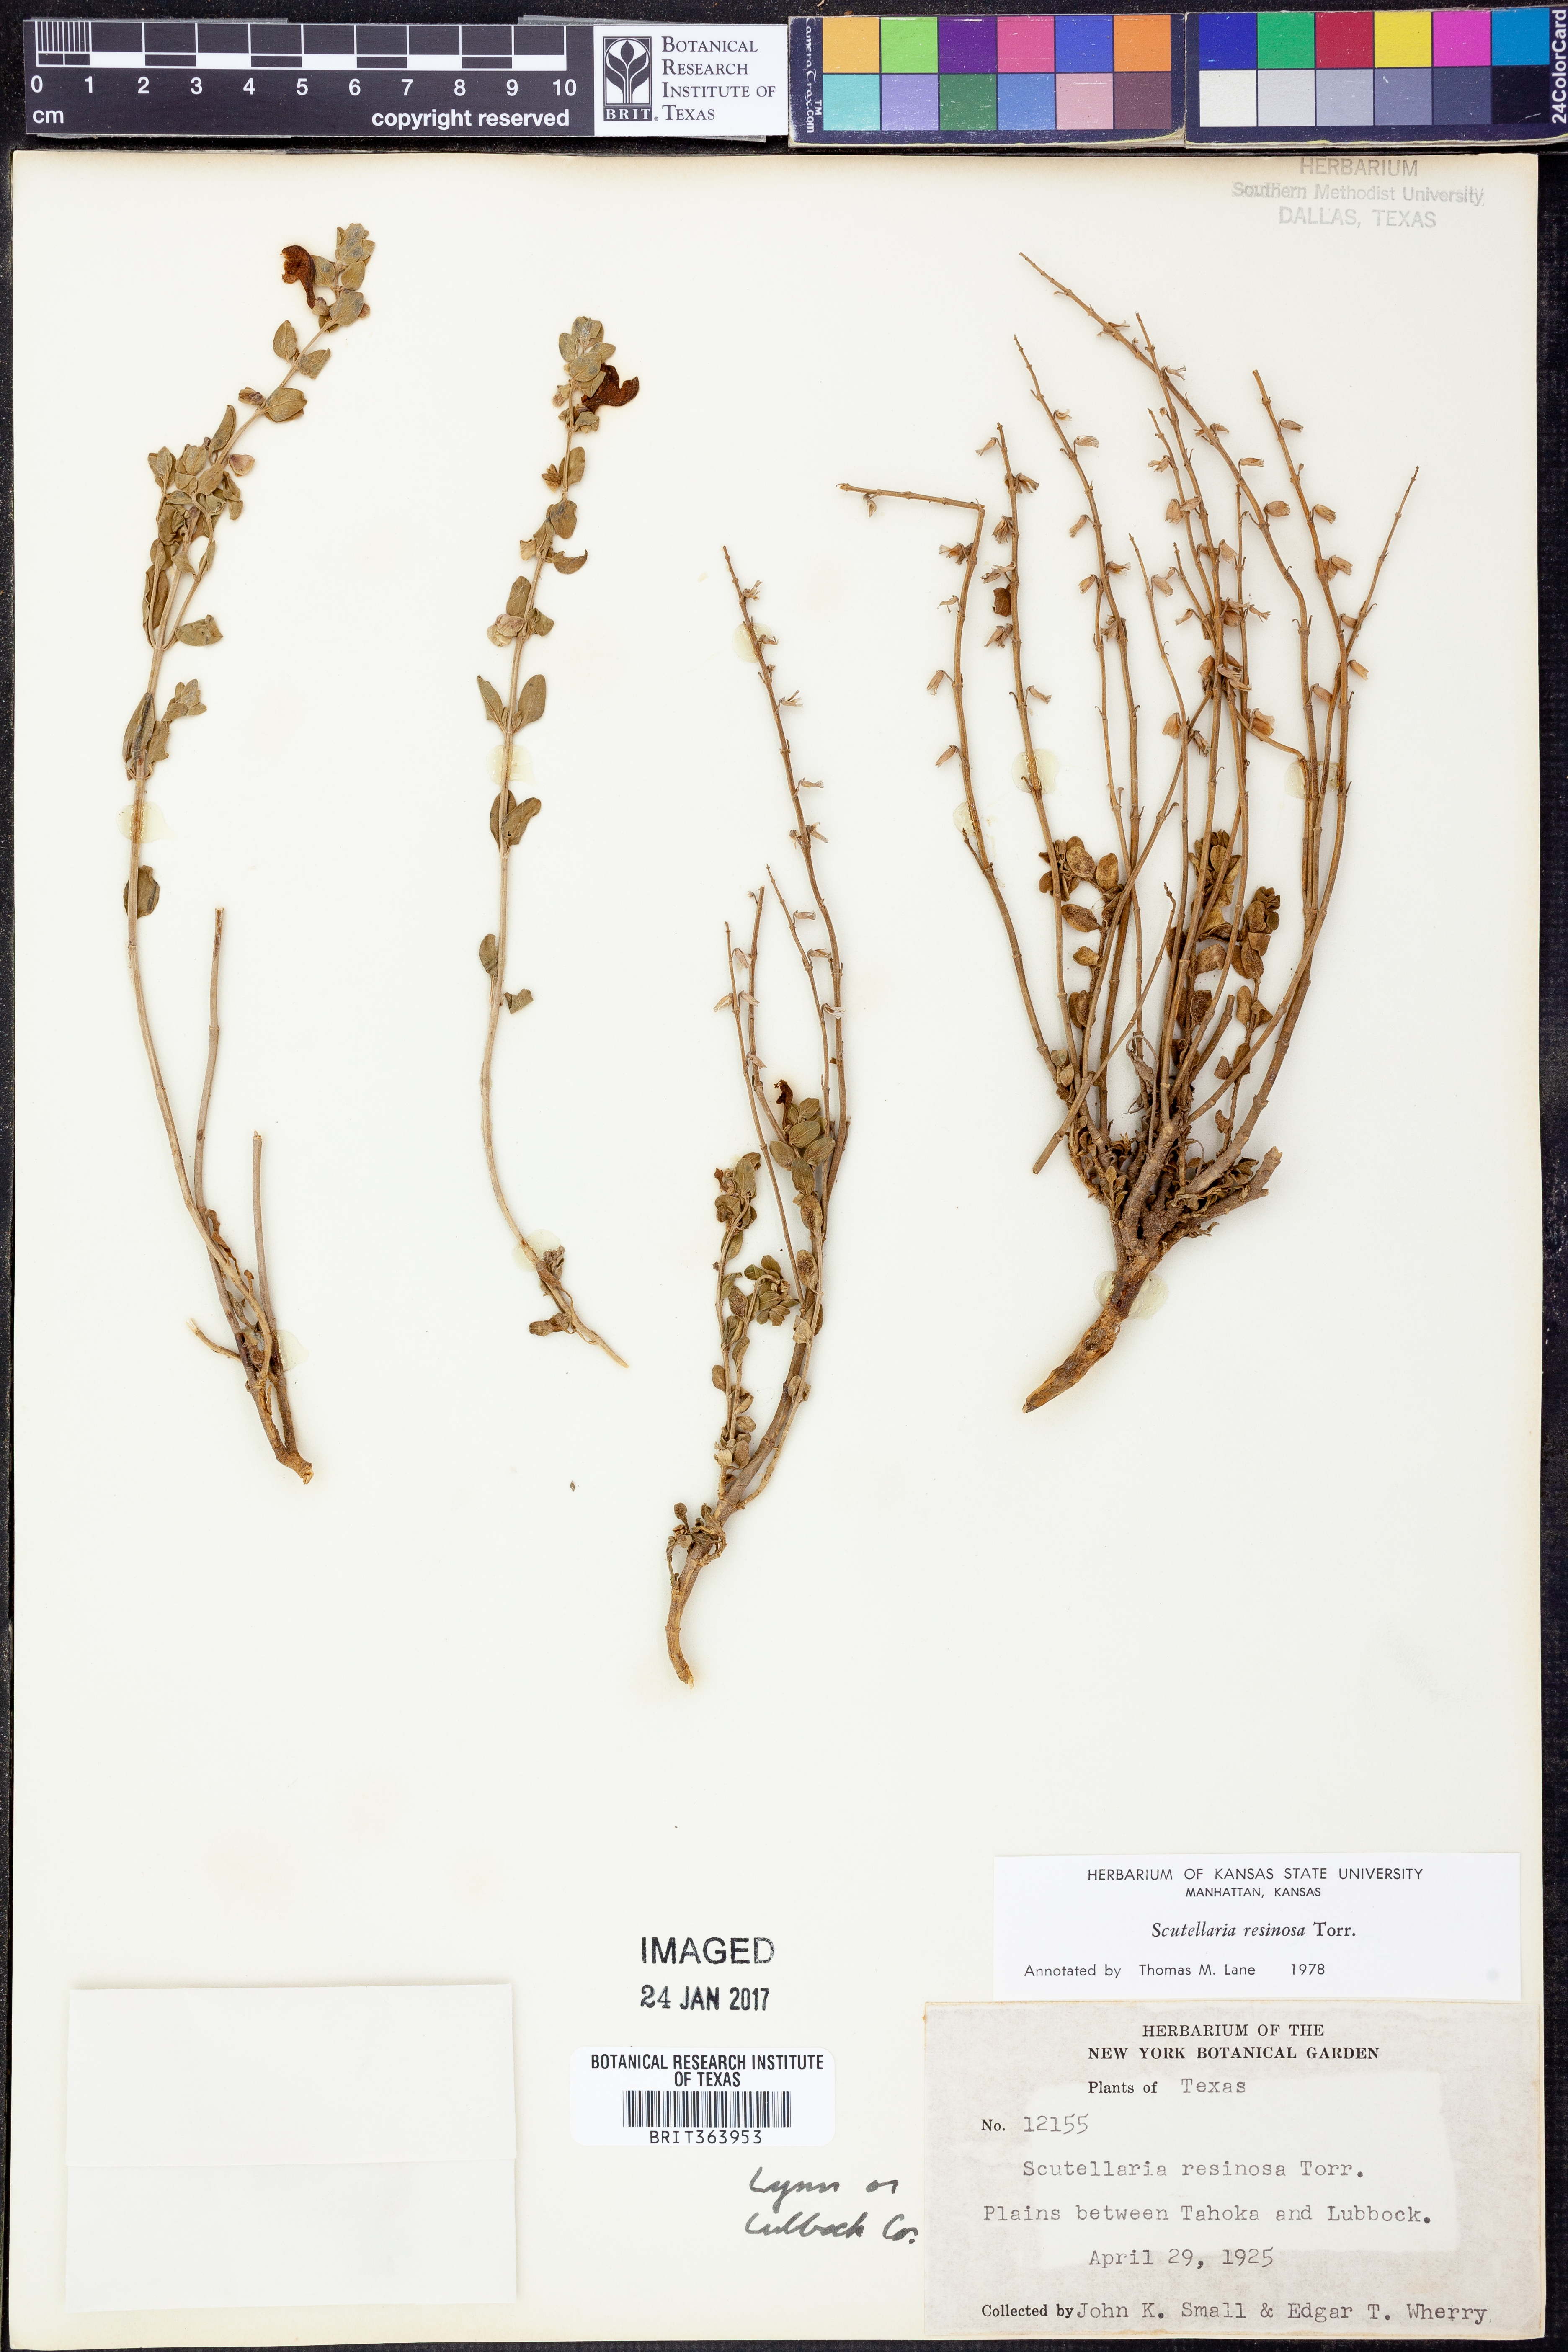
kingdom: Plantae
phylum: Tracheophyta
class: Magnoliopsida
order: Lamiales
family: Lamiaceae
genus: Scutellaria
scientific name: Scutellaria resinosa
